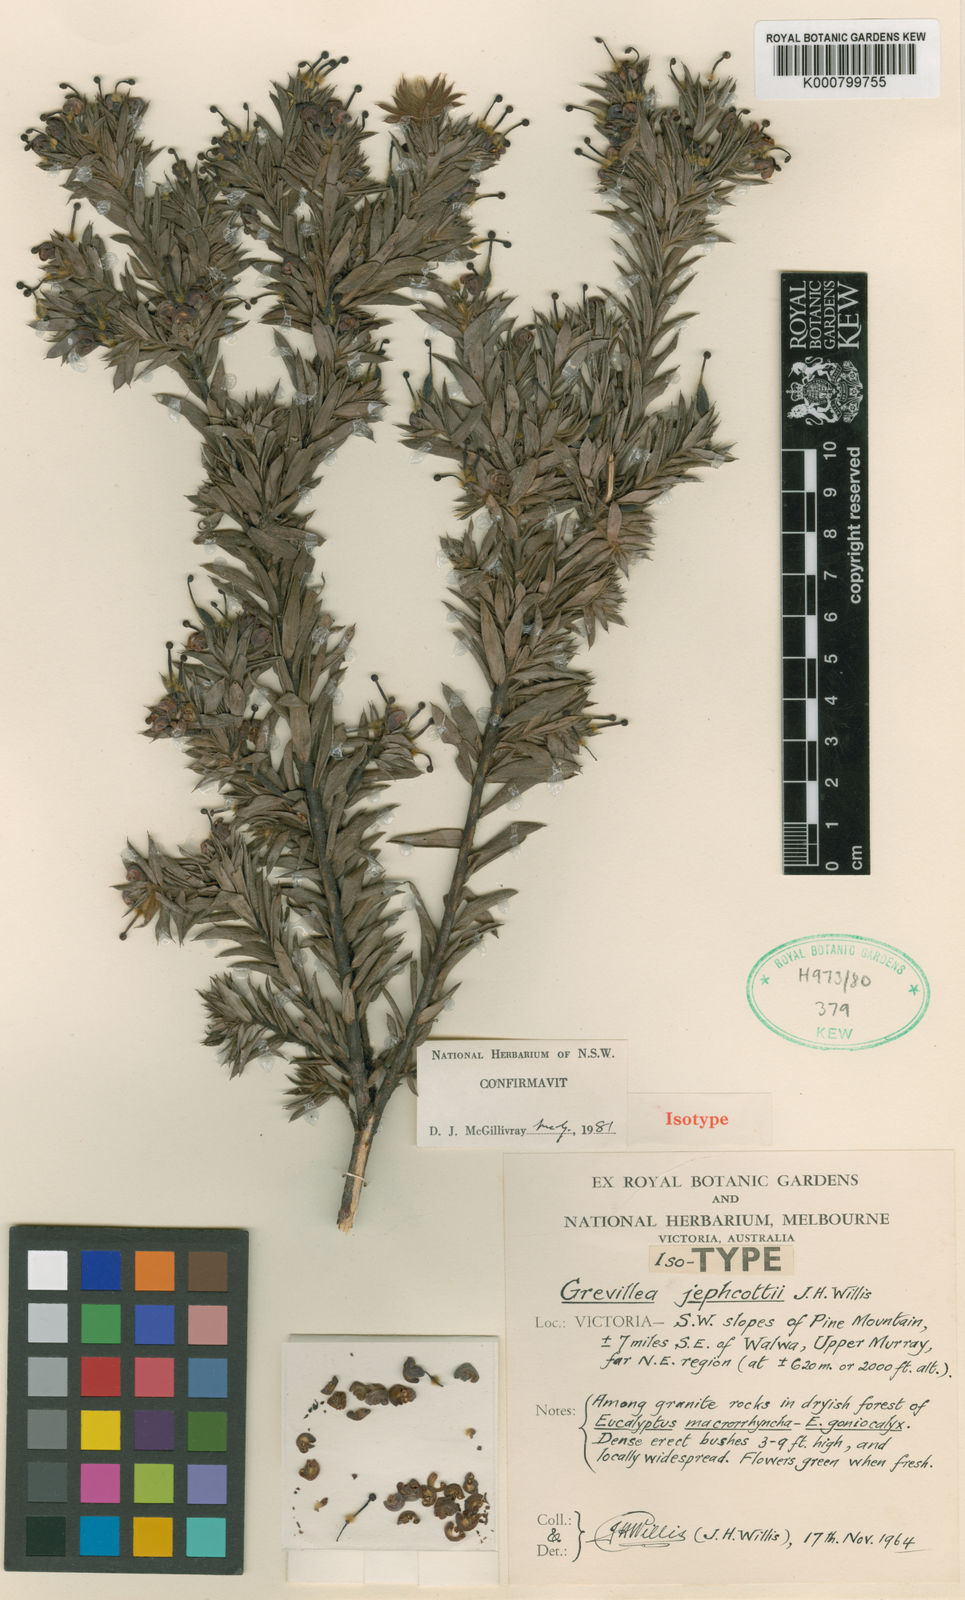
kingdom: Plantae
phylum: Tracheophyta
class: Magnoliopsida
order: Proteales
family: Proteaceae
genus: Grevillea
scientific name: Grevillea jephcottii
